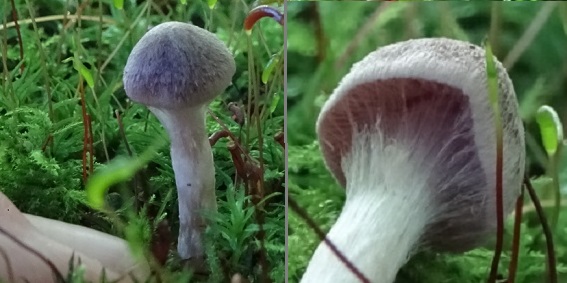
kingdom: Fungi
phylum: Basidiomycota
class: Agaricomycetes
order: Agaricales
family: Cortinariaceae
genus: Cortinarius
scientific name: Cortinarius
